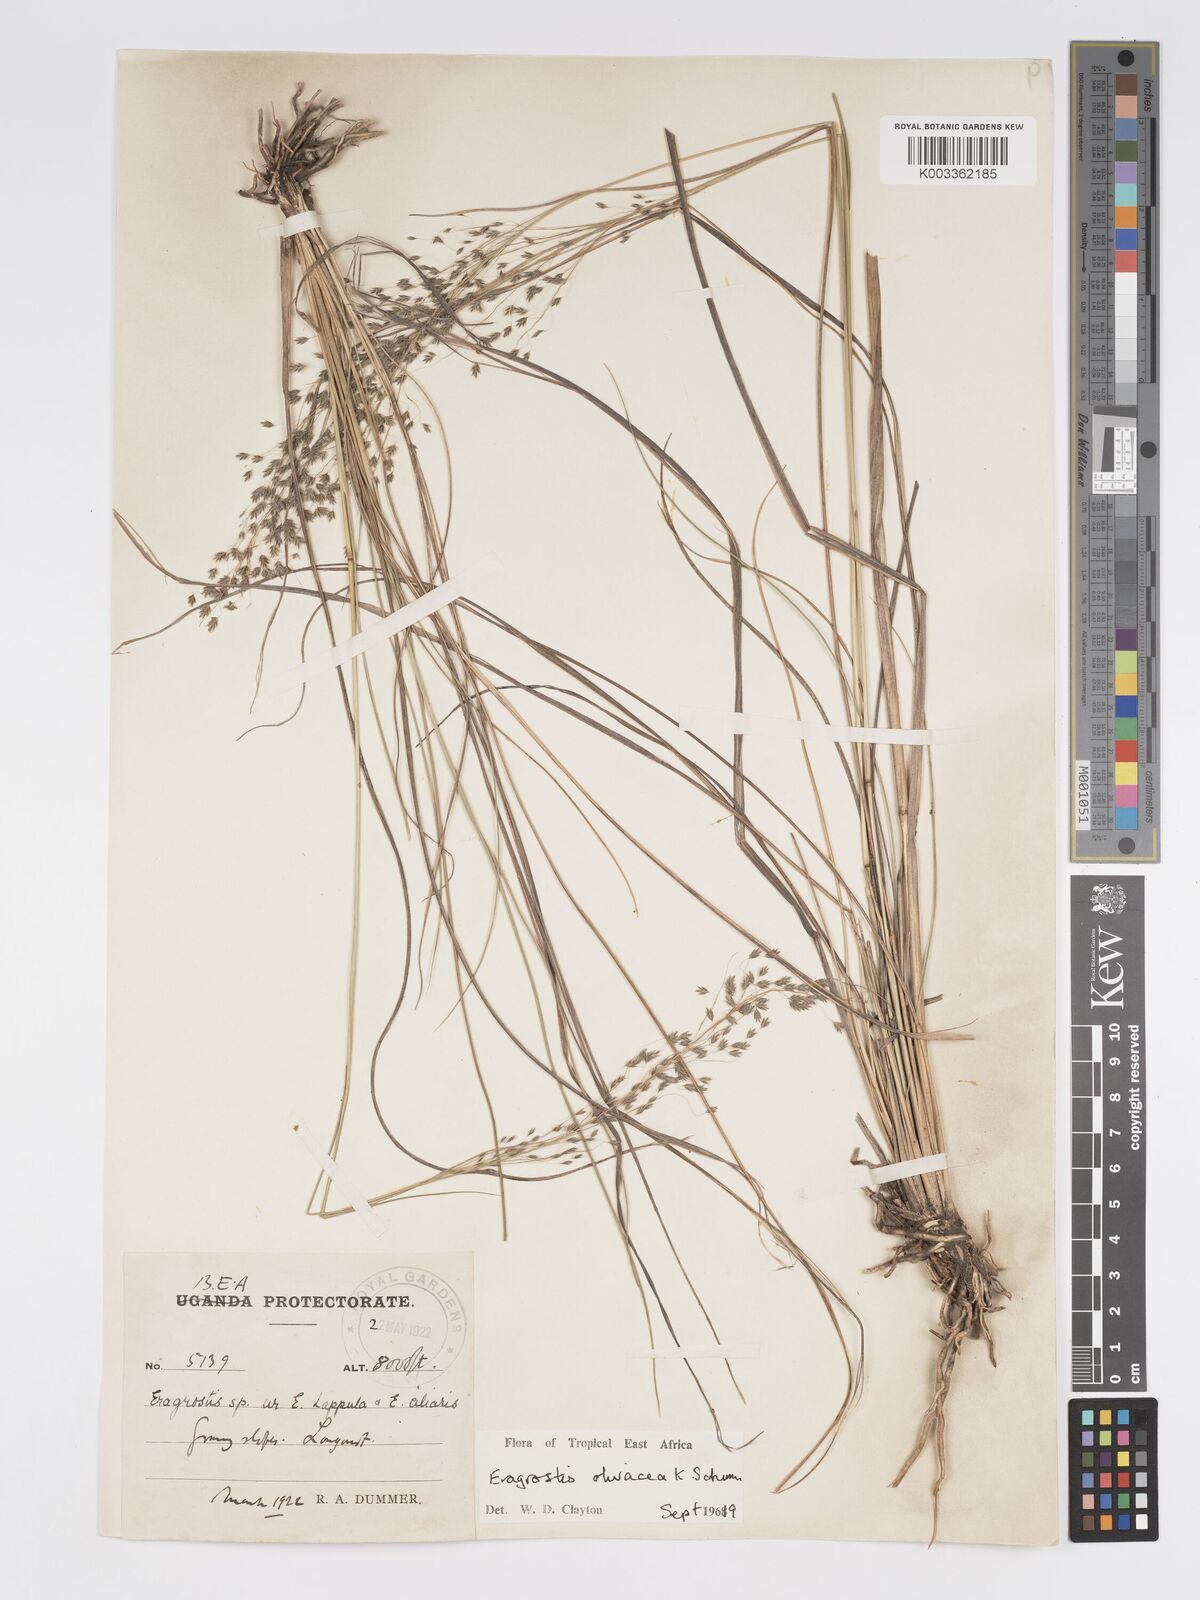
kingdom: Plantae
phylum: Tracheophyta
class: Liliopsida
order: Poales
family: Poaceae
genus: Eragrostis
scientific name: Eragrostis olivacea
